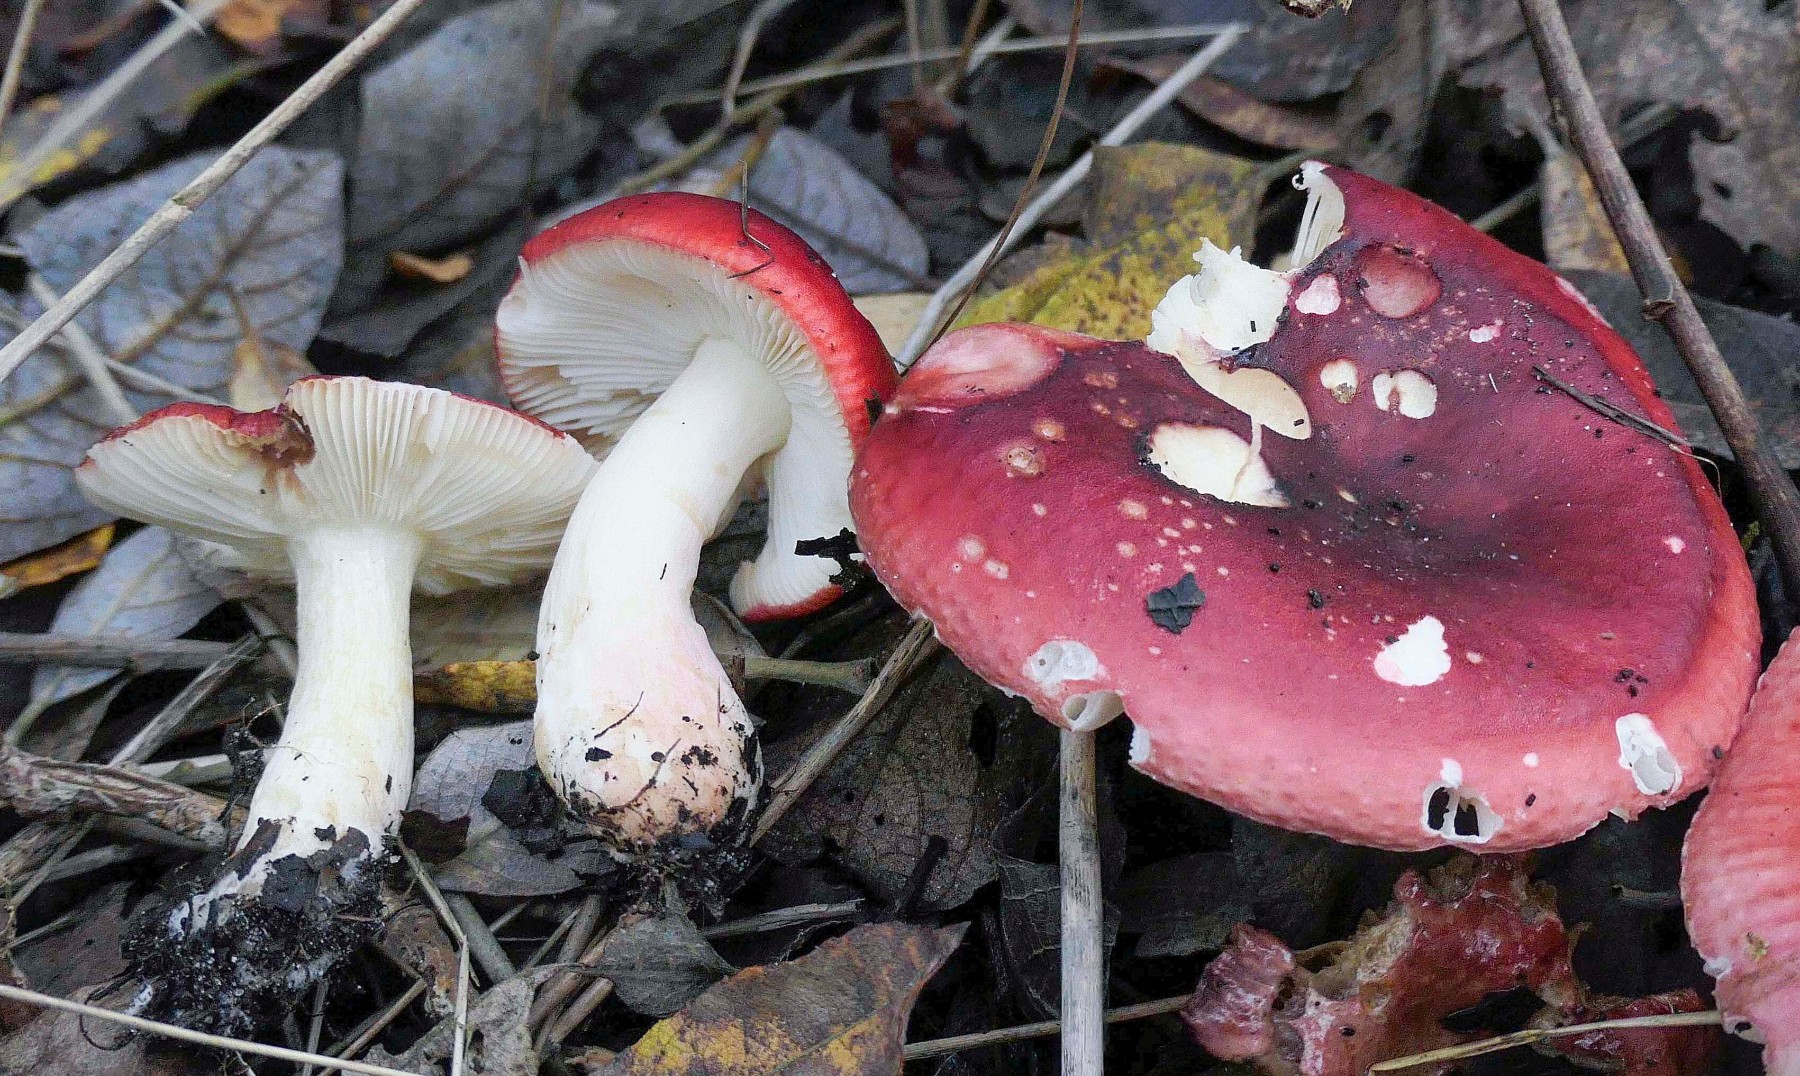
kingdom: Fungi
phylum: Basidiomycota
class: Agaricomycetes
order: Russulales
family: Russulaceae
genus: Russula
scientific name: Russula subrubens
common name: pile-skørhat
